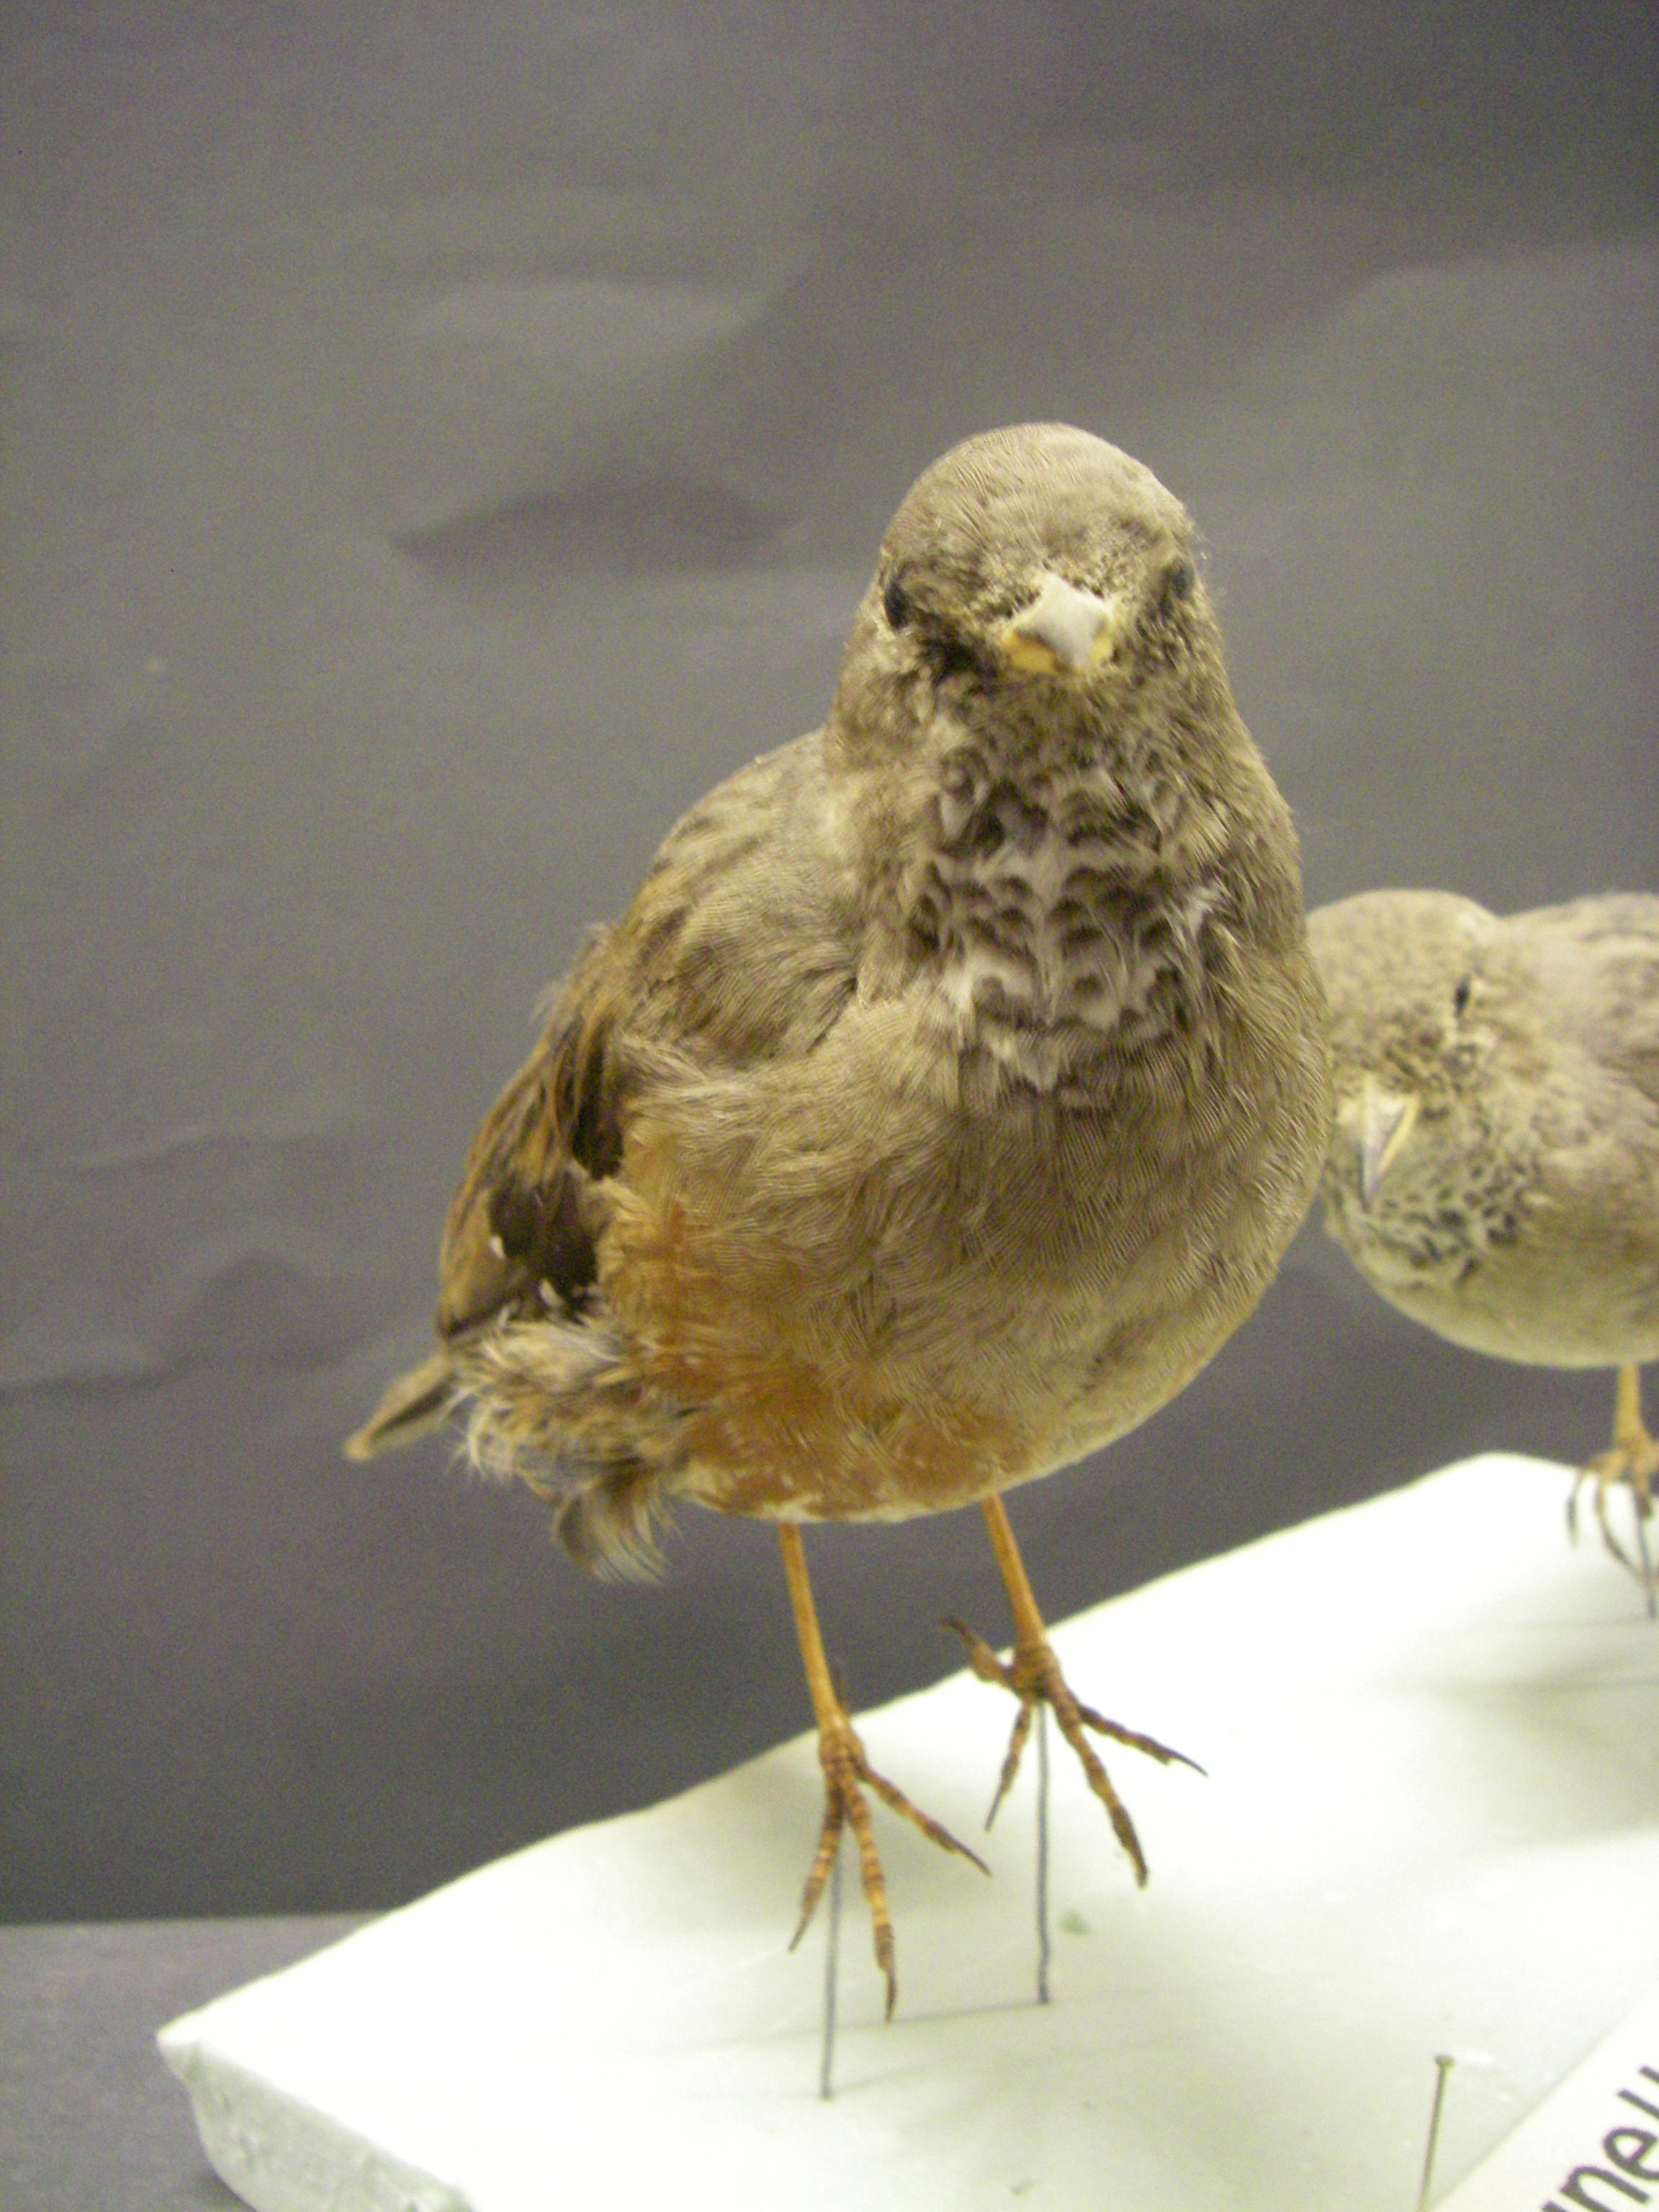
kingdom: Animalia
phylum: Chordata
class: Aves
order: Passeriformes
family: Prunellidae
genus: Prunella
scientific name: Prunella collaris
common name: Alpine accentor
